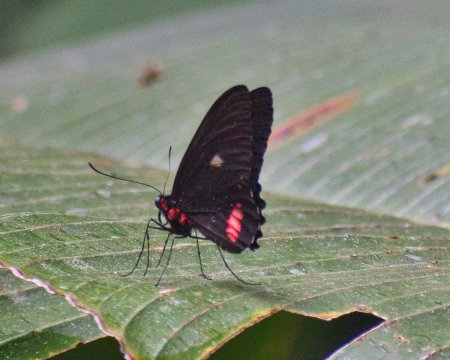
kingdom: Animalia
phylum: Arthropoda
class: Insecta
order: Lepidoptera
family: Papilionidae
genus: Parides
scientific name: Parides erithalion
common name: Variable Cattleheart
